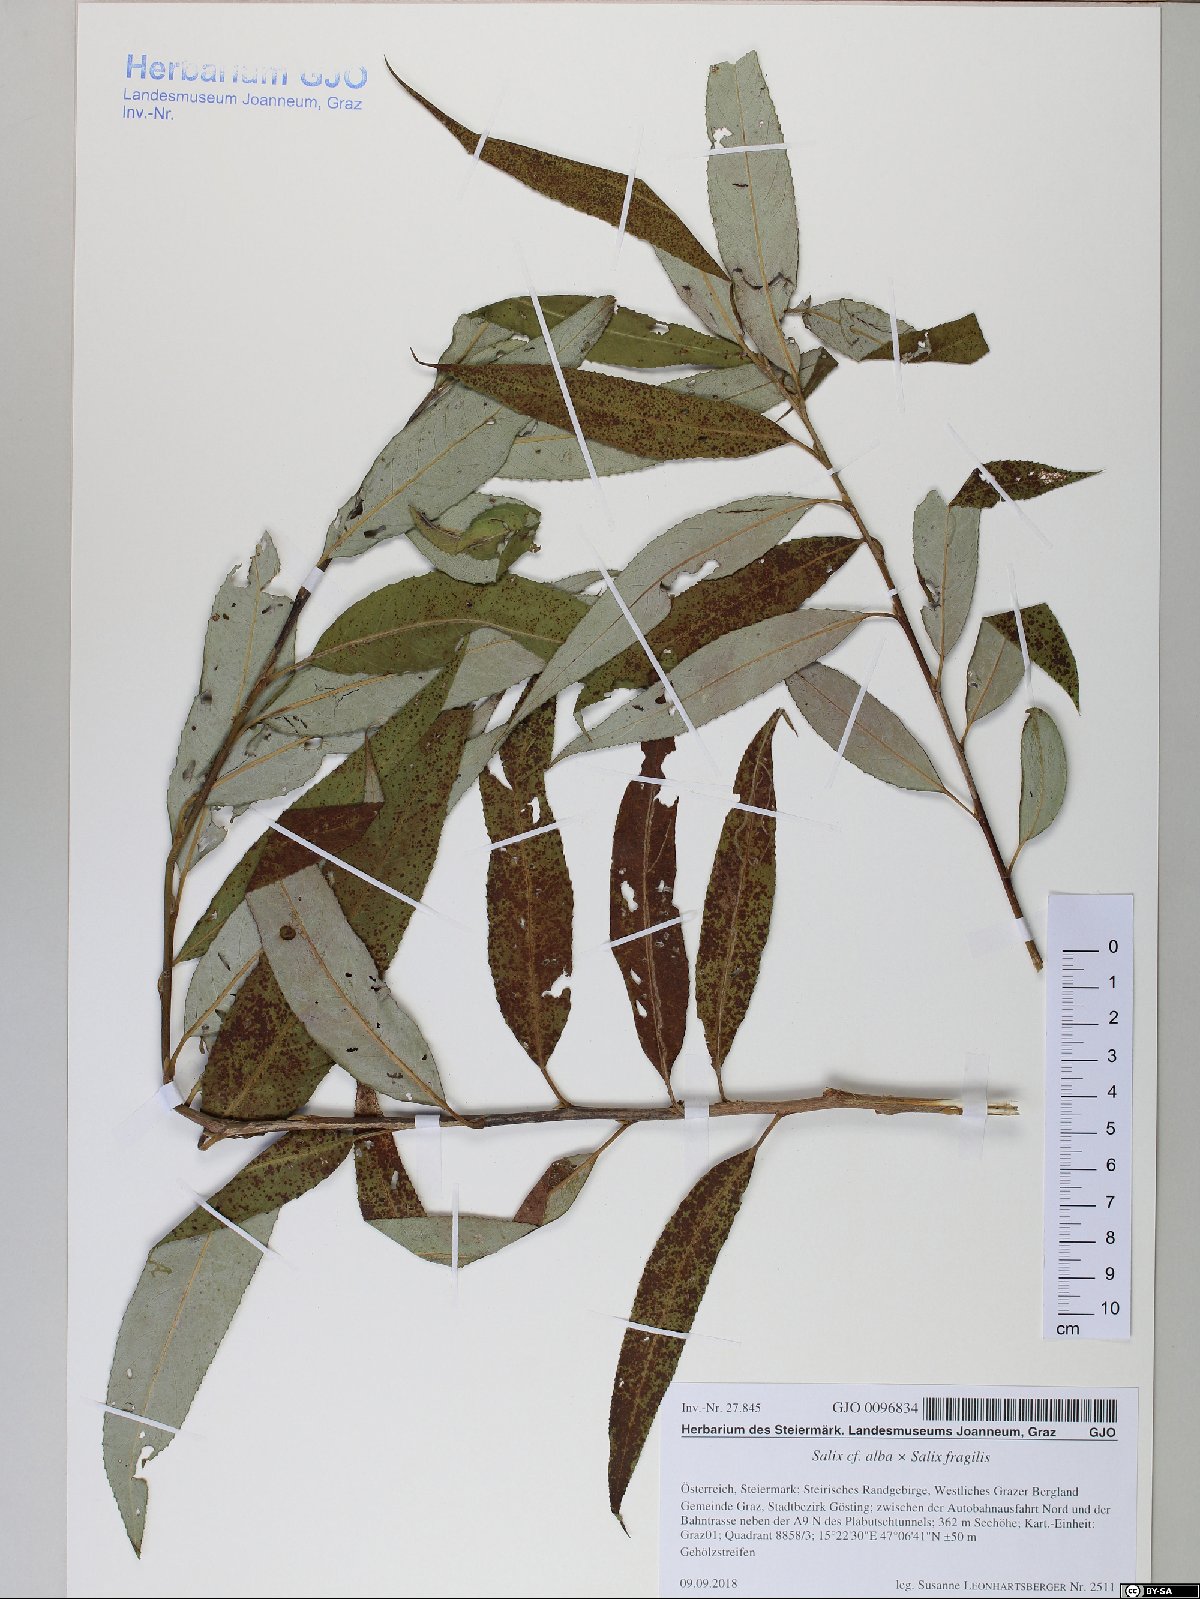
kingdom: Plantae
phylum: Tracheophyta
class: Magnoliopsida
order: Malpighiales
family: Salicaceae
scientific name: Salicaceae
